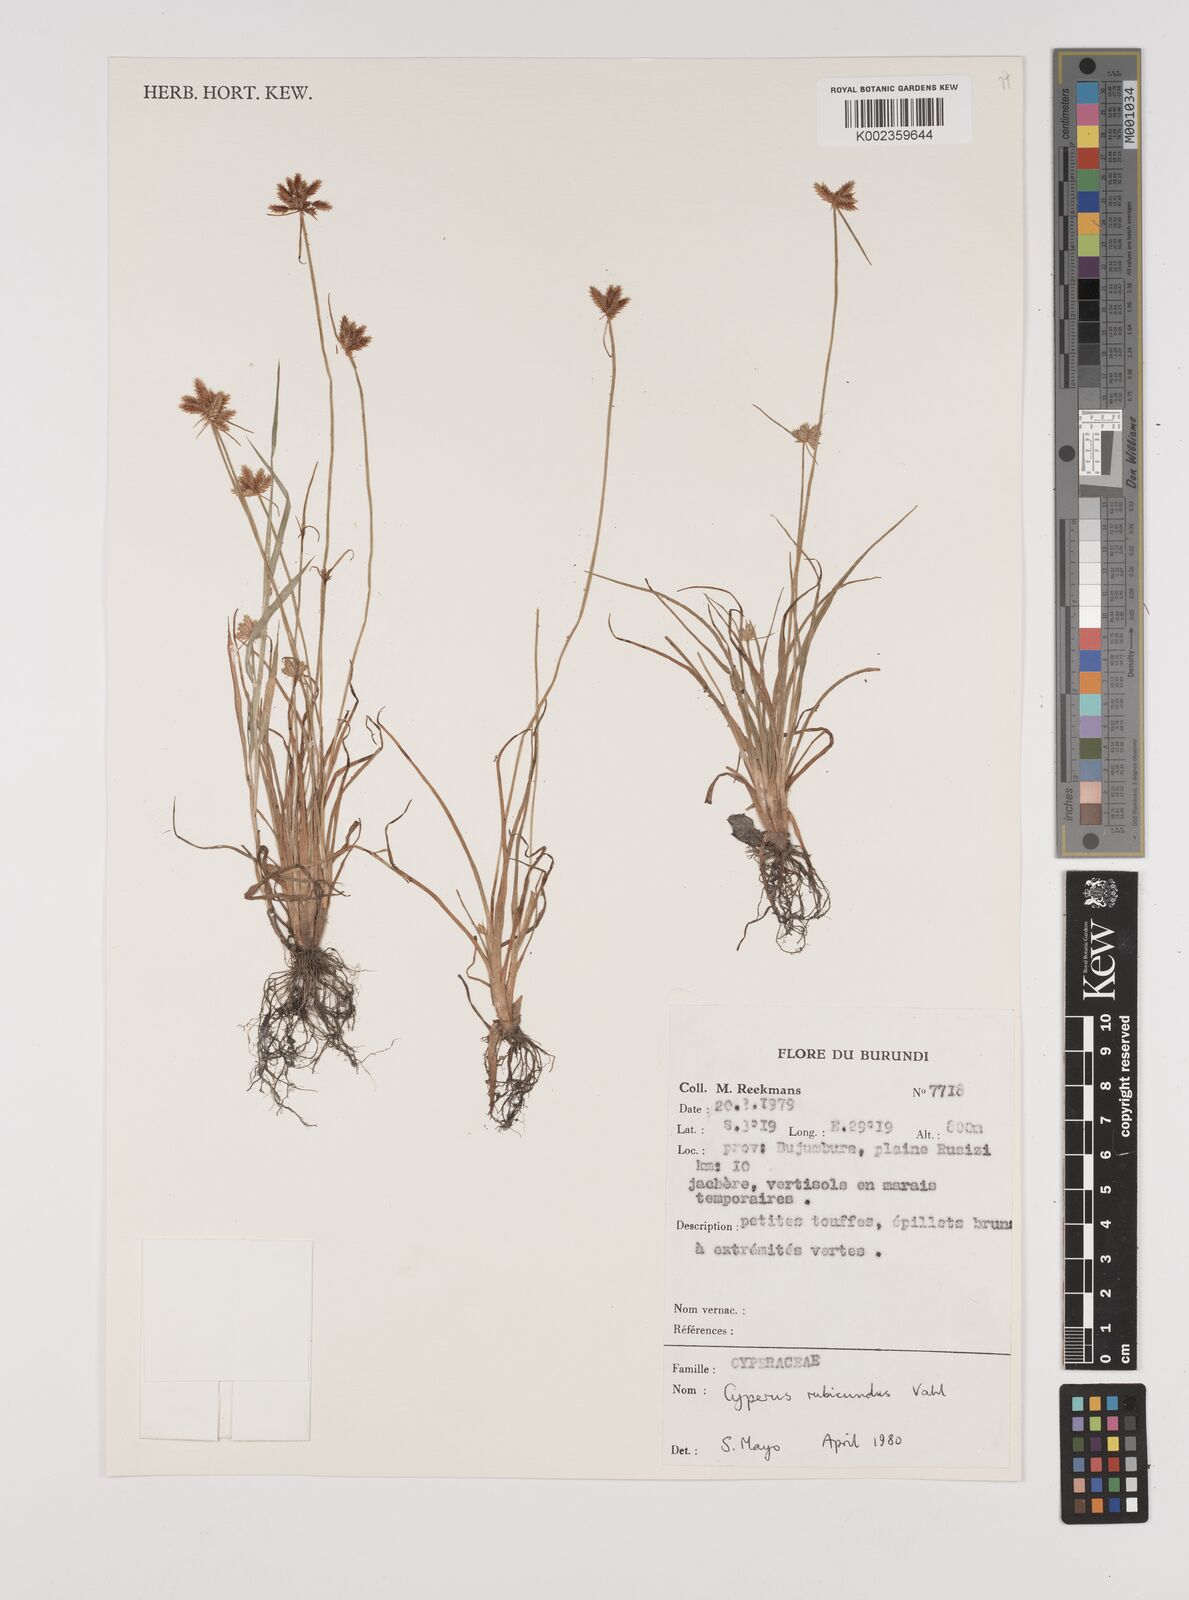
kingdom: Plantae
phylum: Tracheophyta
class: Liliopsida
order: Poales
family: Cyperaceae
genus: Cyperus
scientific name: Cyperus rubicundus
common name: Coco-grass
